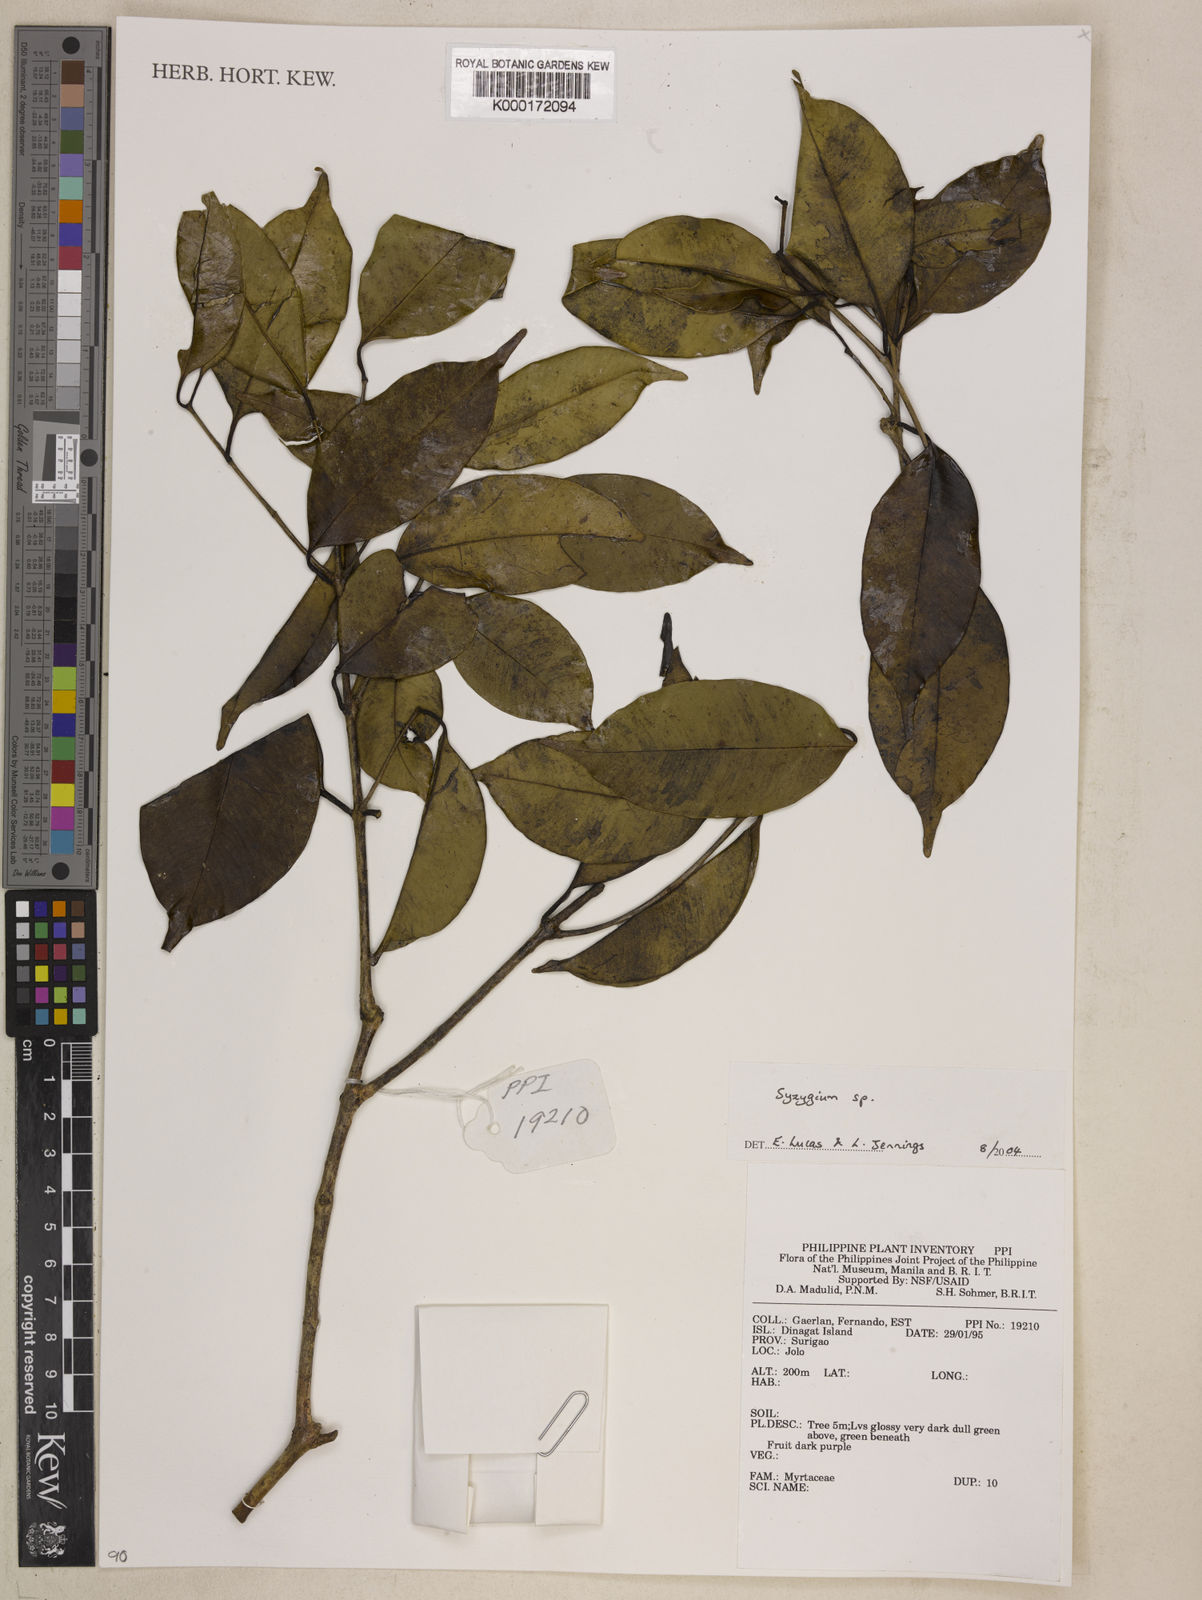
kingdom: Plantae
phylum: Tracheophyta
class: Magnoliopsida
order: Myrtales
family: Myrtaceae
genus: Syzygium
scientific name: Syzygium
